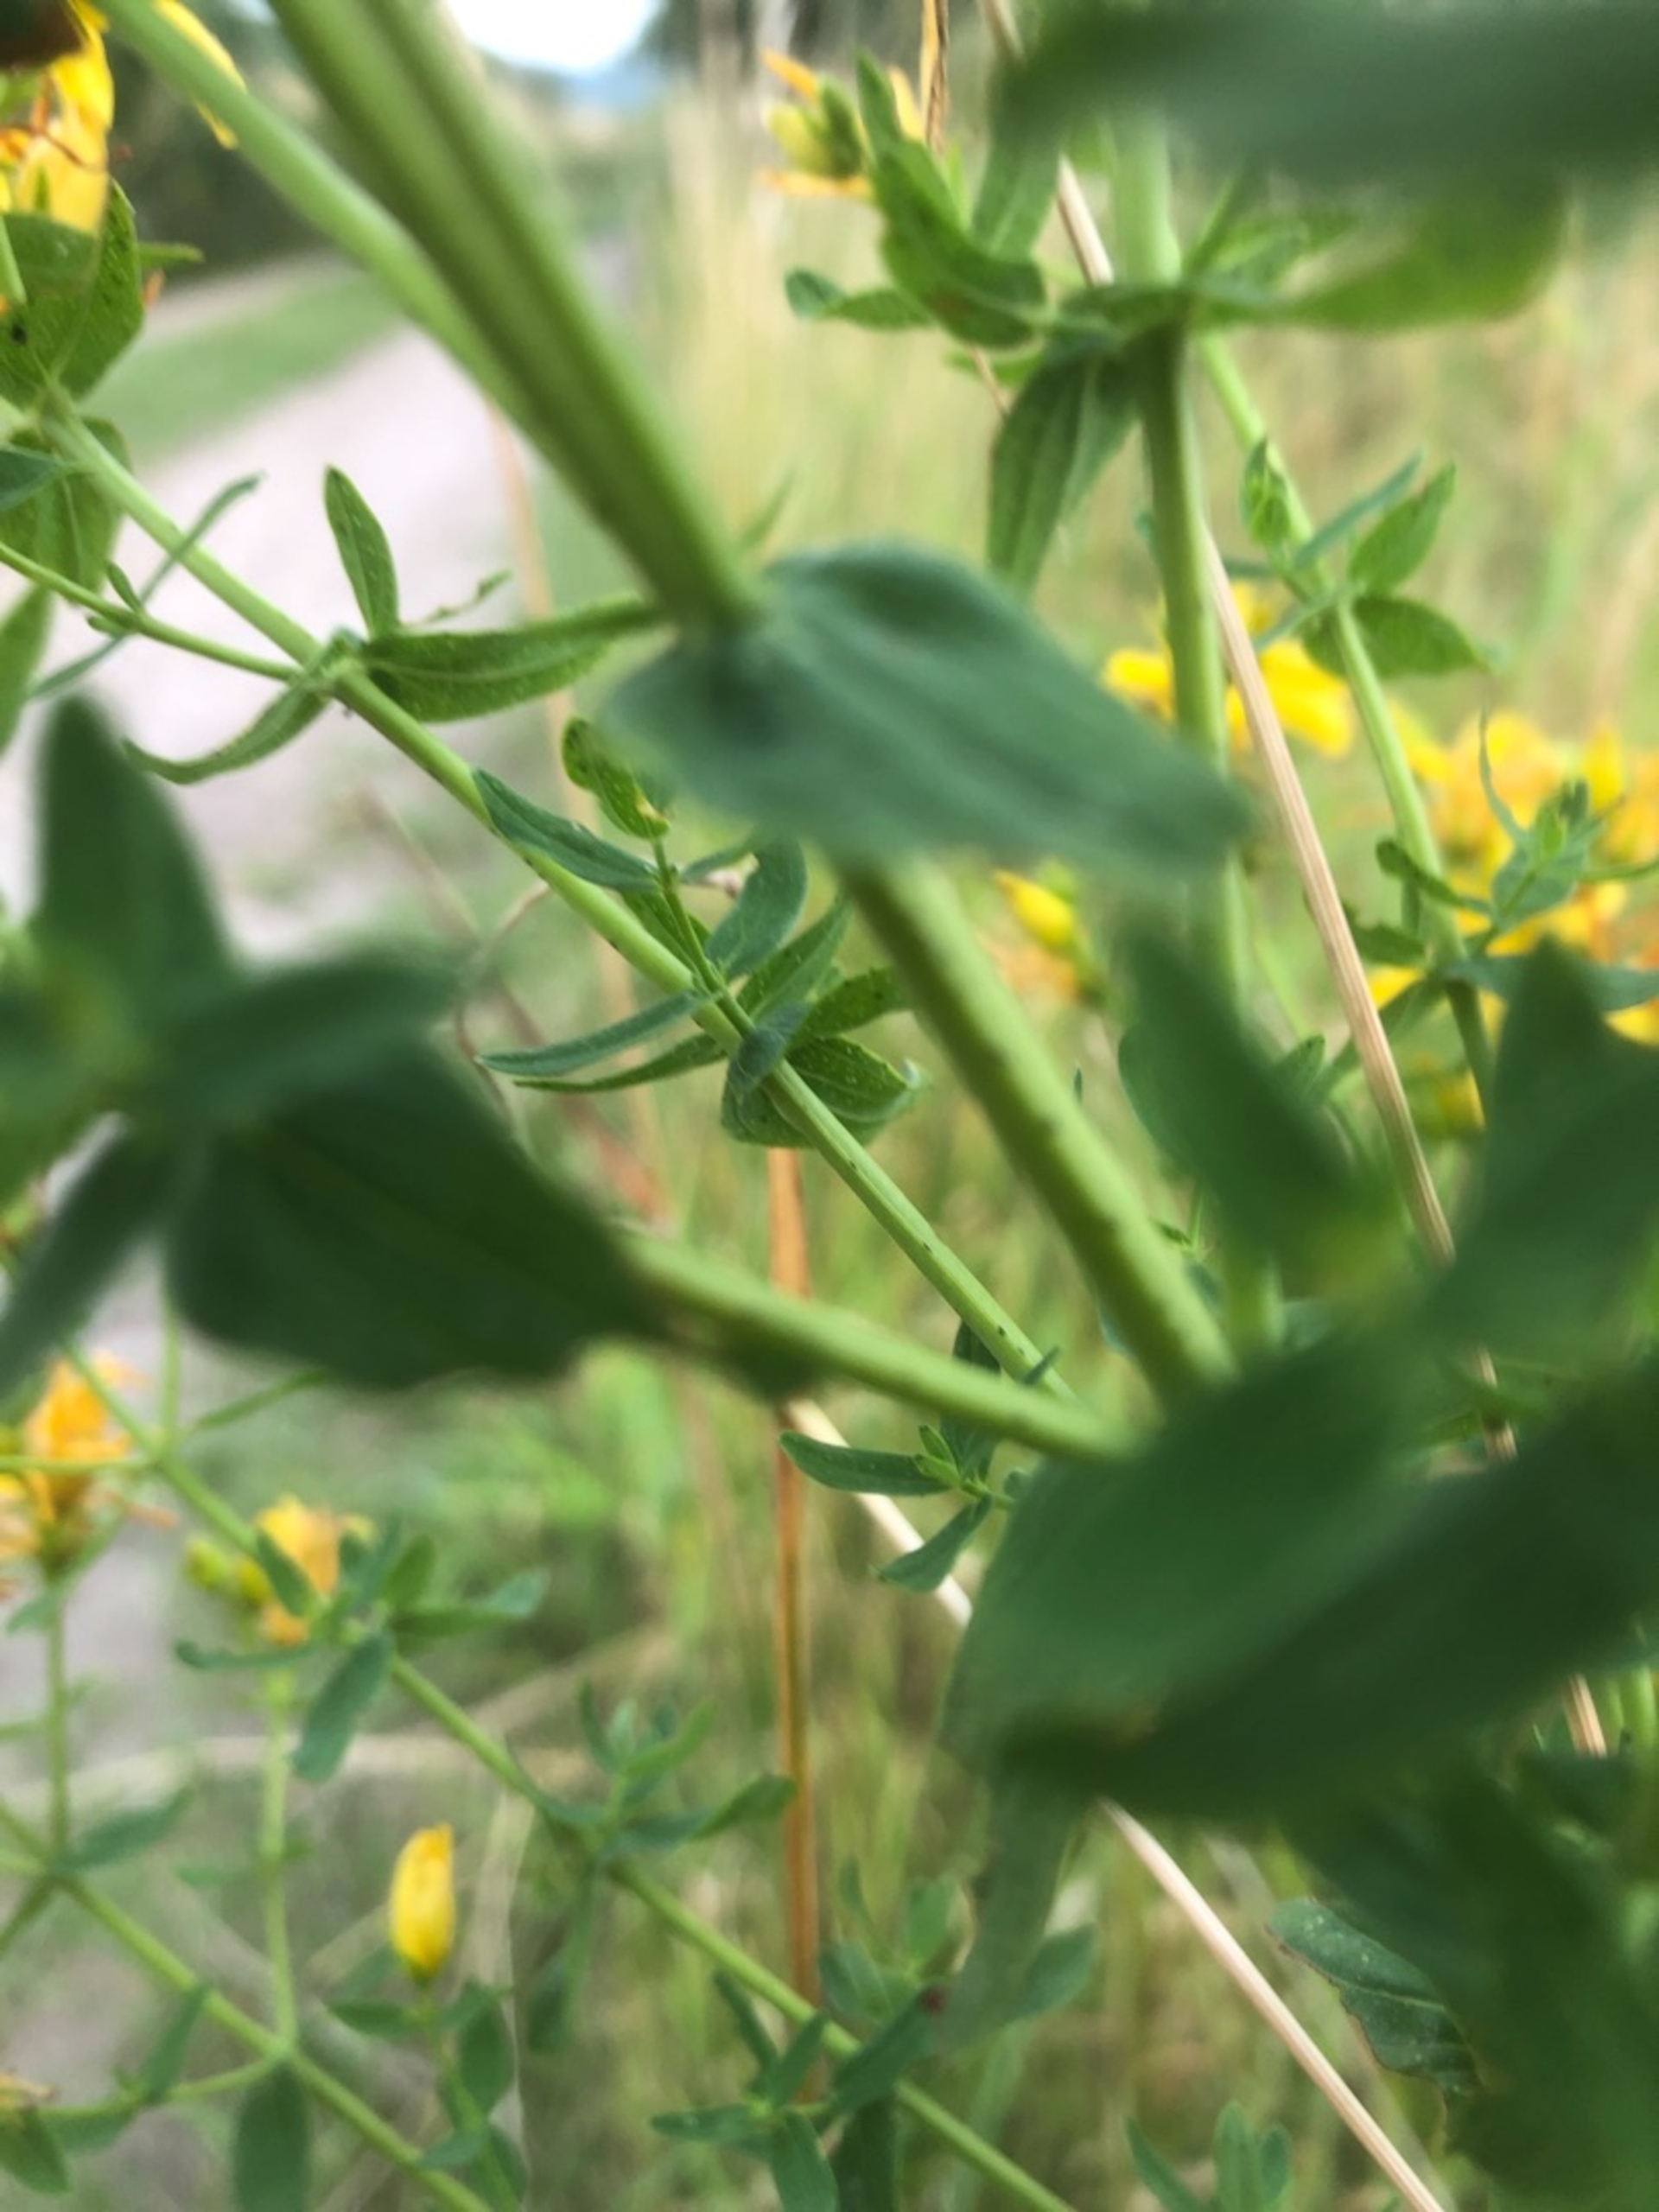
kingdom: Plantae
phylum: Tracheophyta
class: Magnoliopsida
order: Malpighiales
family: Hypericaceae
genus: Hypericum
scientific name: Hypericum perforatum
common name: Prikbladet perikon
